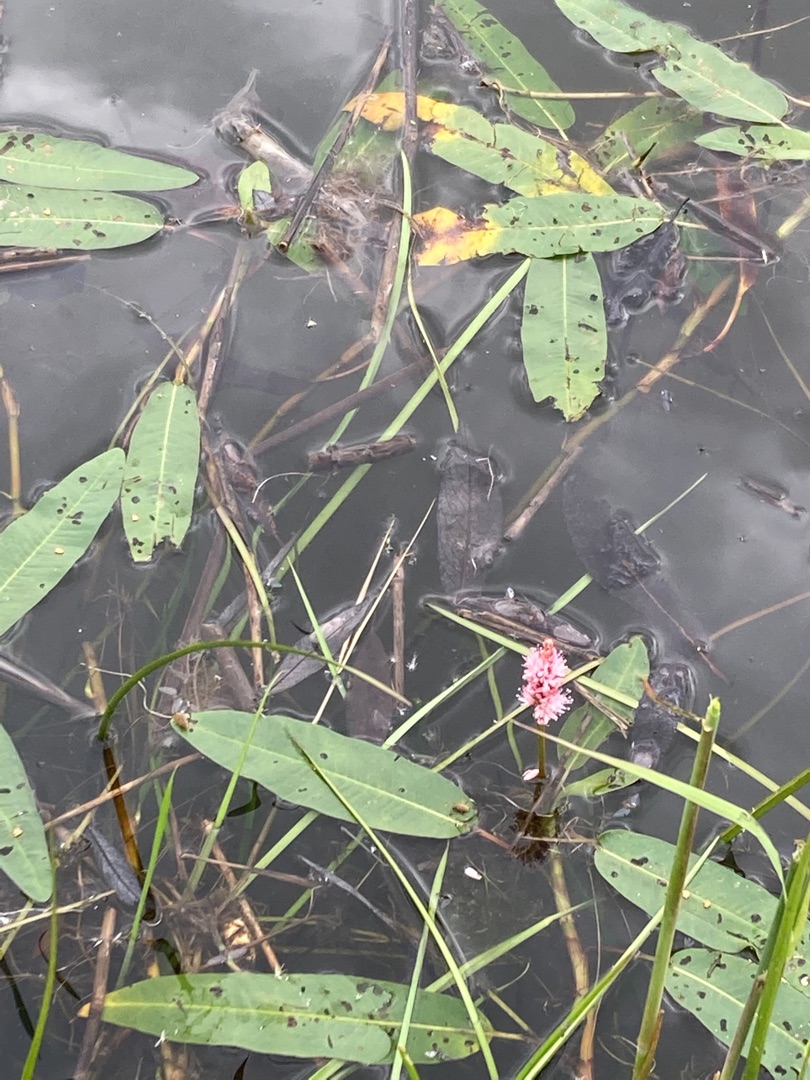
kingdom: Plantae
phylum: Tracheophyta
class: Magnoliopsida
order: Caryophyllales
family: Polygonaceae
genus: Persicaria
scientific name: Persicaria amphibia
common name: Vand-pileurt
